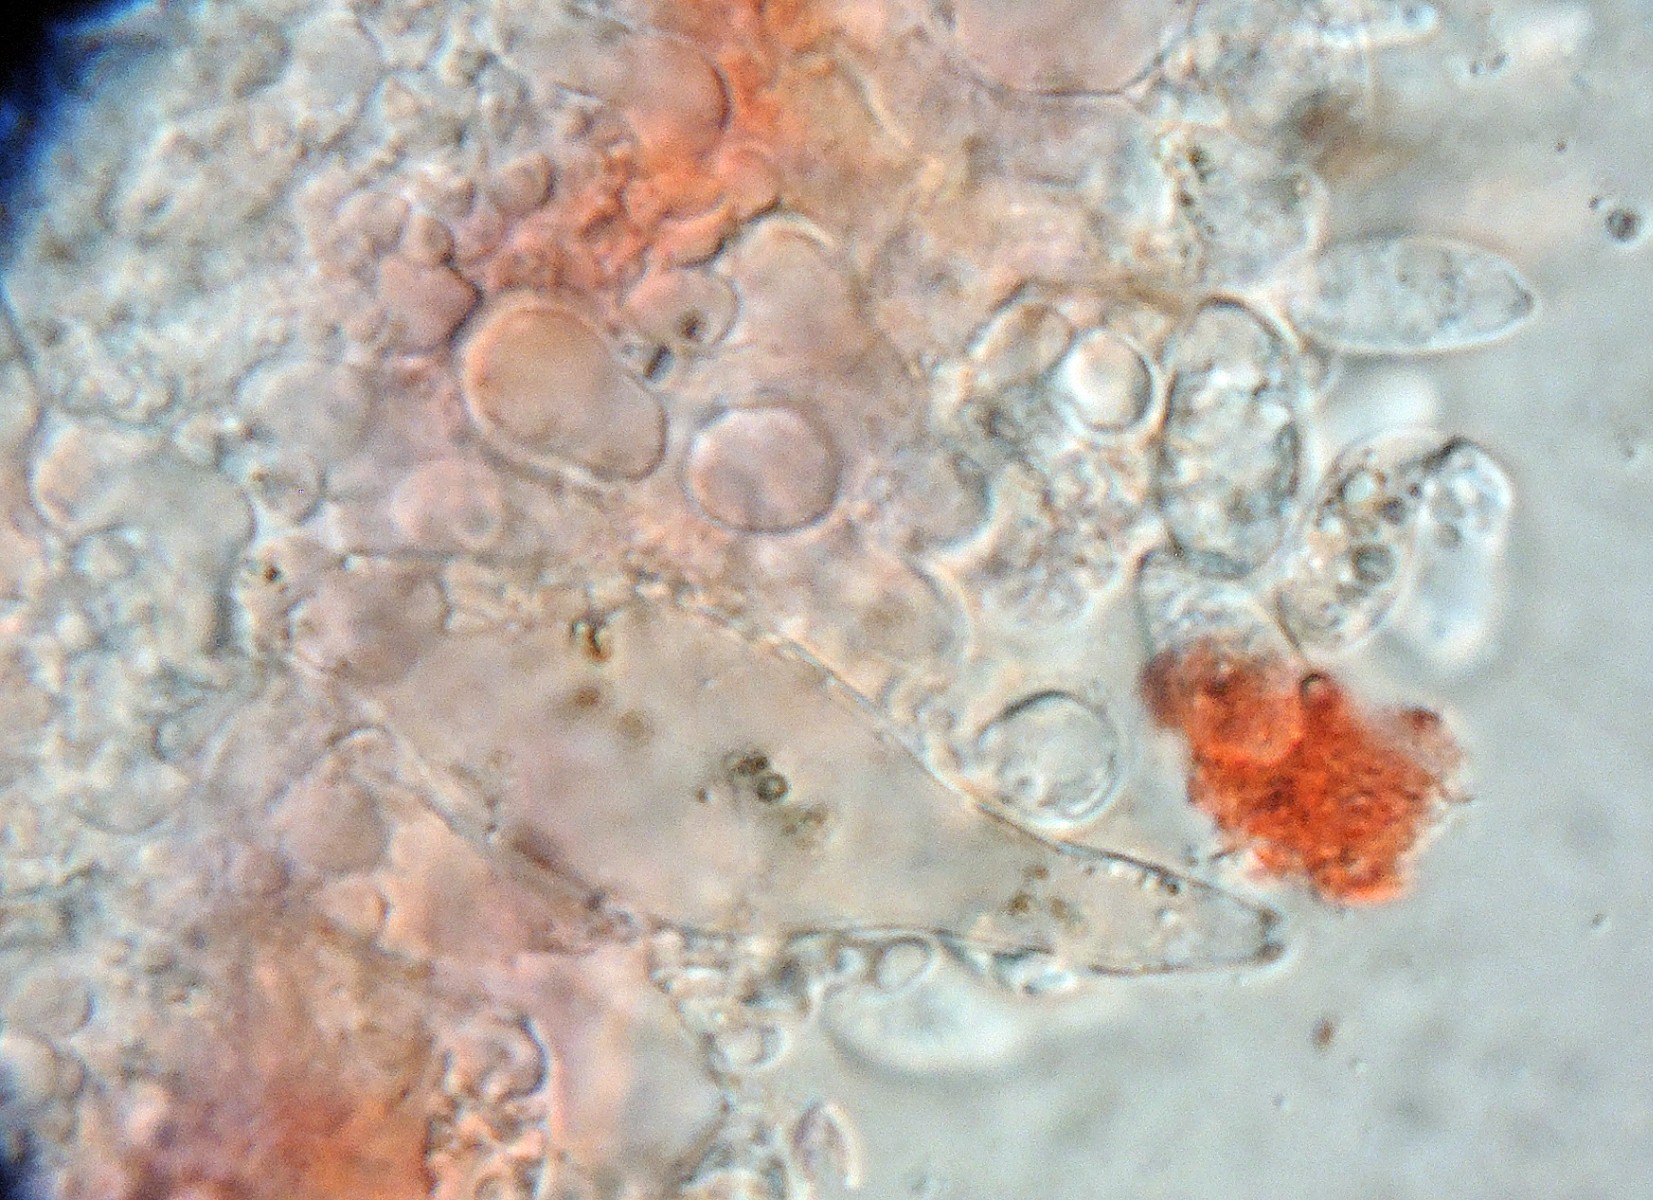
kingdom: Fungi
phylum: Basidiomycota
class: Agaricomycetes
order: Agaricales
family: Mycenaceae
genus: Mycena
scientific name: Mycena olivaceomarginata
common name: brunægget huesvamp
